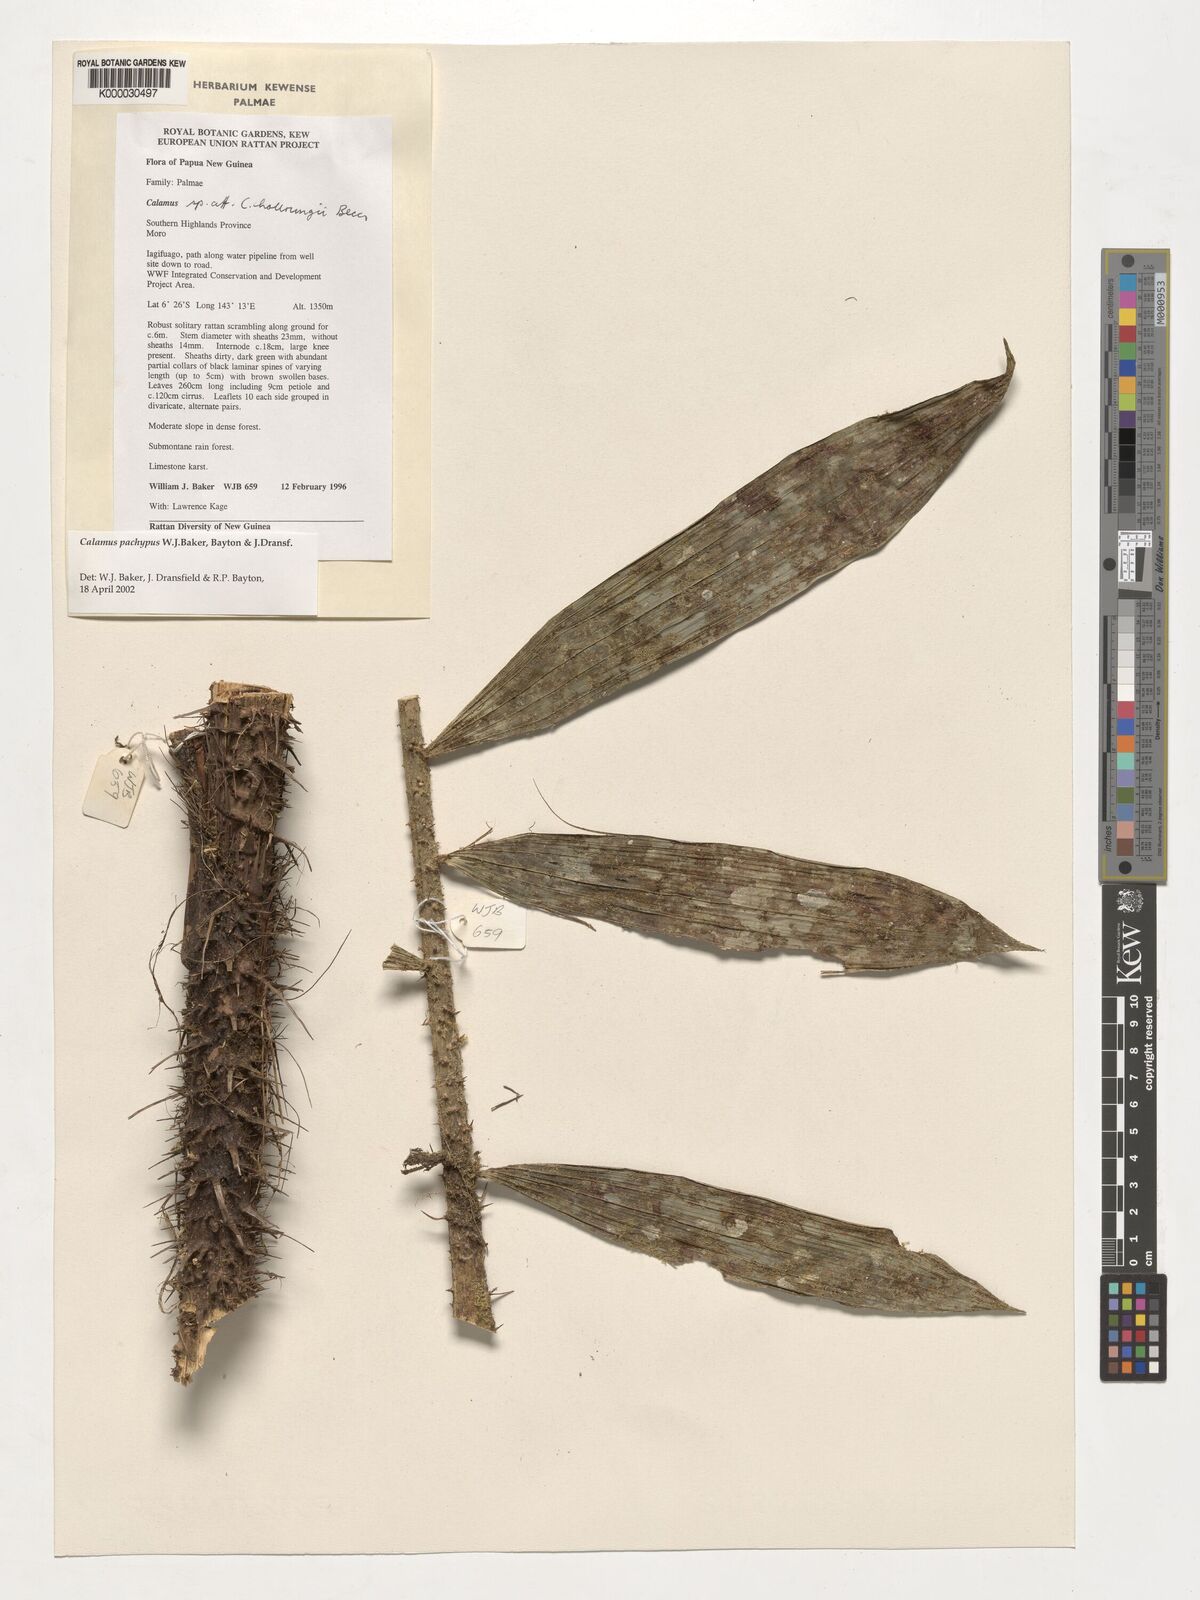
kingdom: Plantae
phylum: Tracheophyta
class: Liliopsida
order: Arecales
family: Arecaceae
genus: Calamus
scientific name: Calamus
